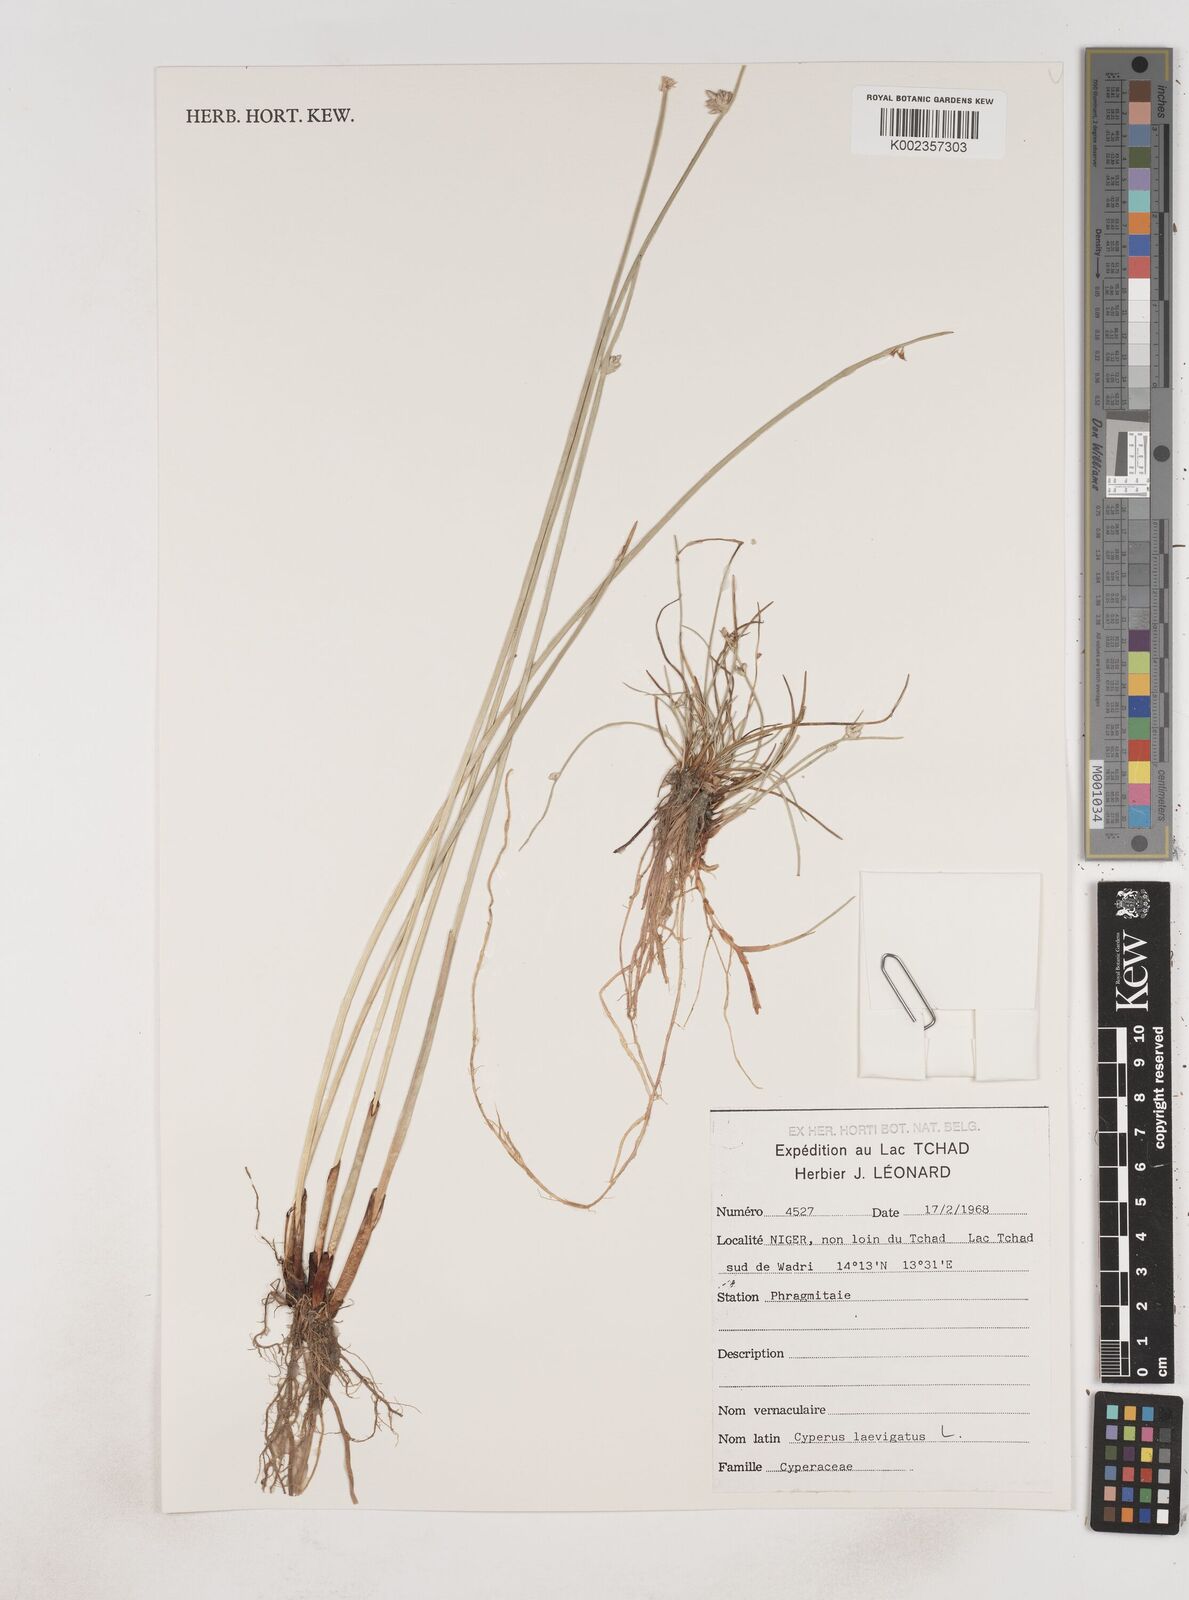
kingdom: Plantae
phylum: Tracheophyta
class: Liliopsida
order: Poales
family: Cyperaceae
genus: Cyperus
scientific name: Cyperus laevigatus
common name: Smooth flat sedge
